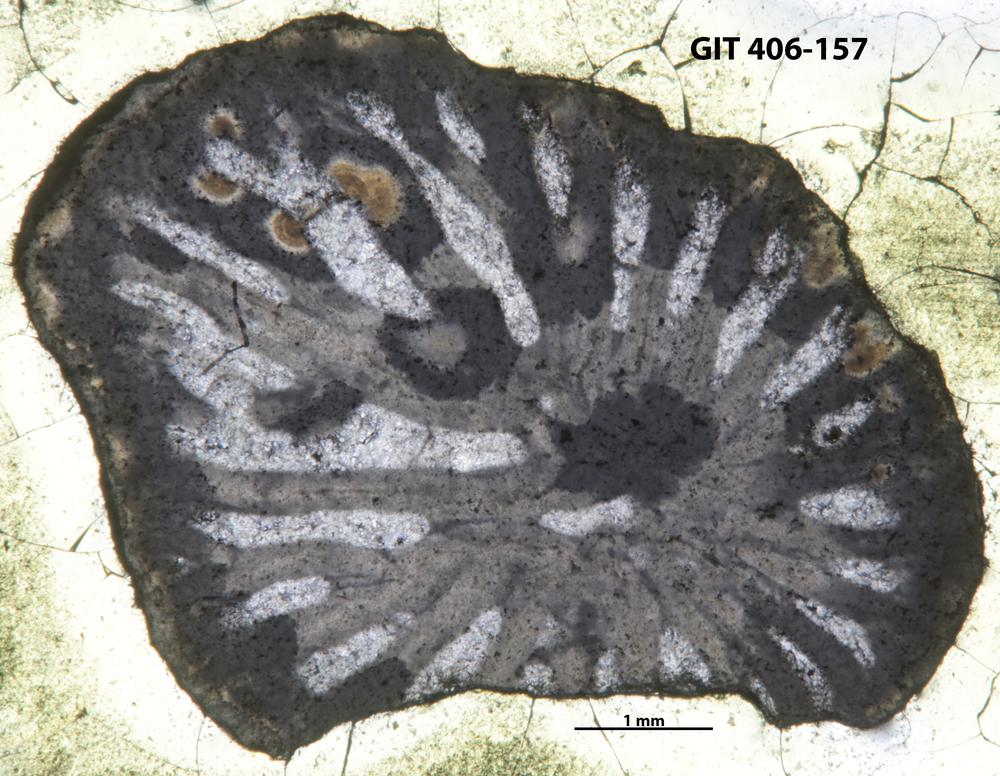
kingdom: Animalia
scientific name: Animalia
